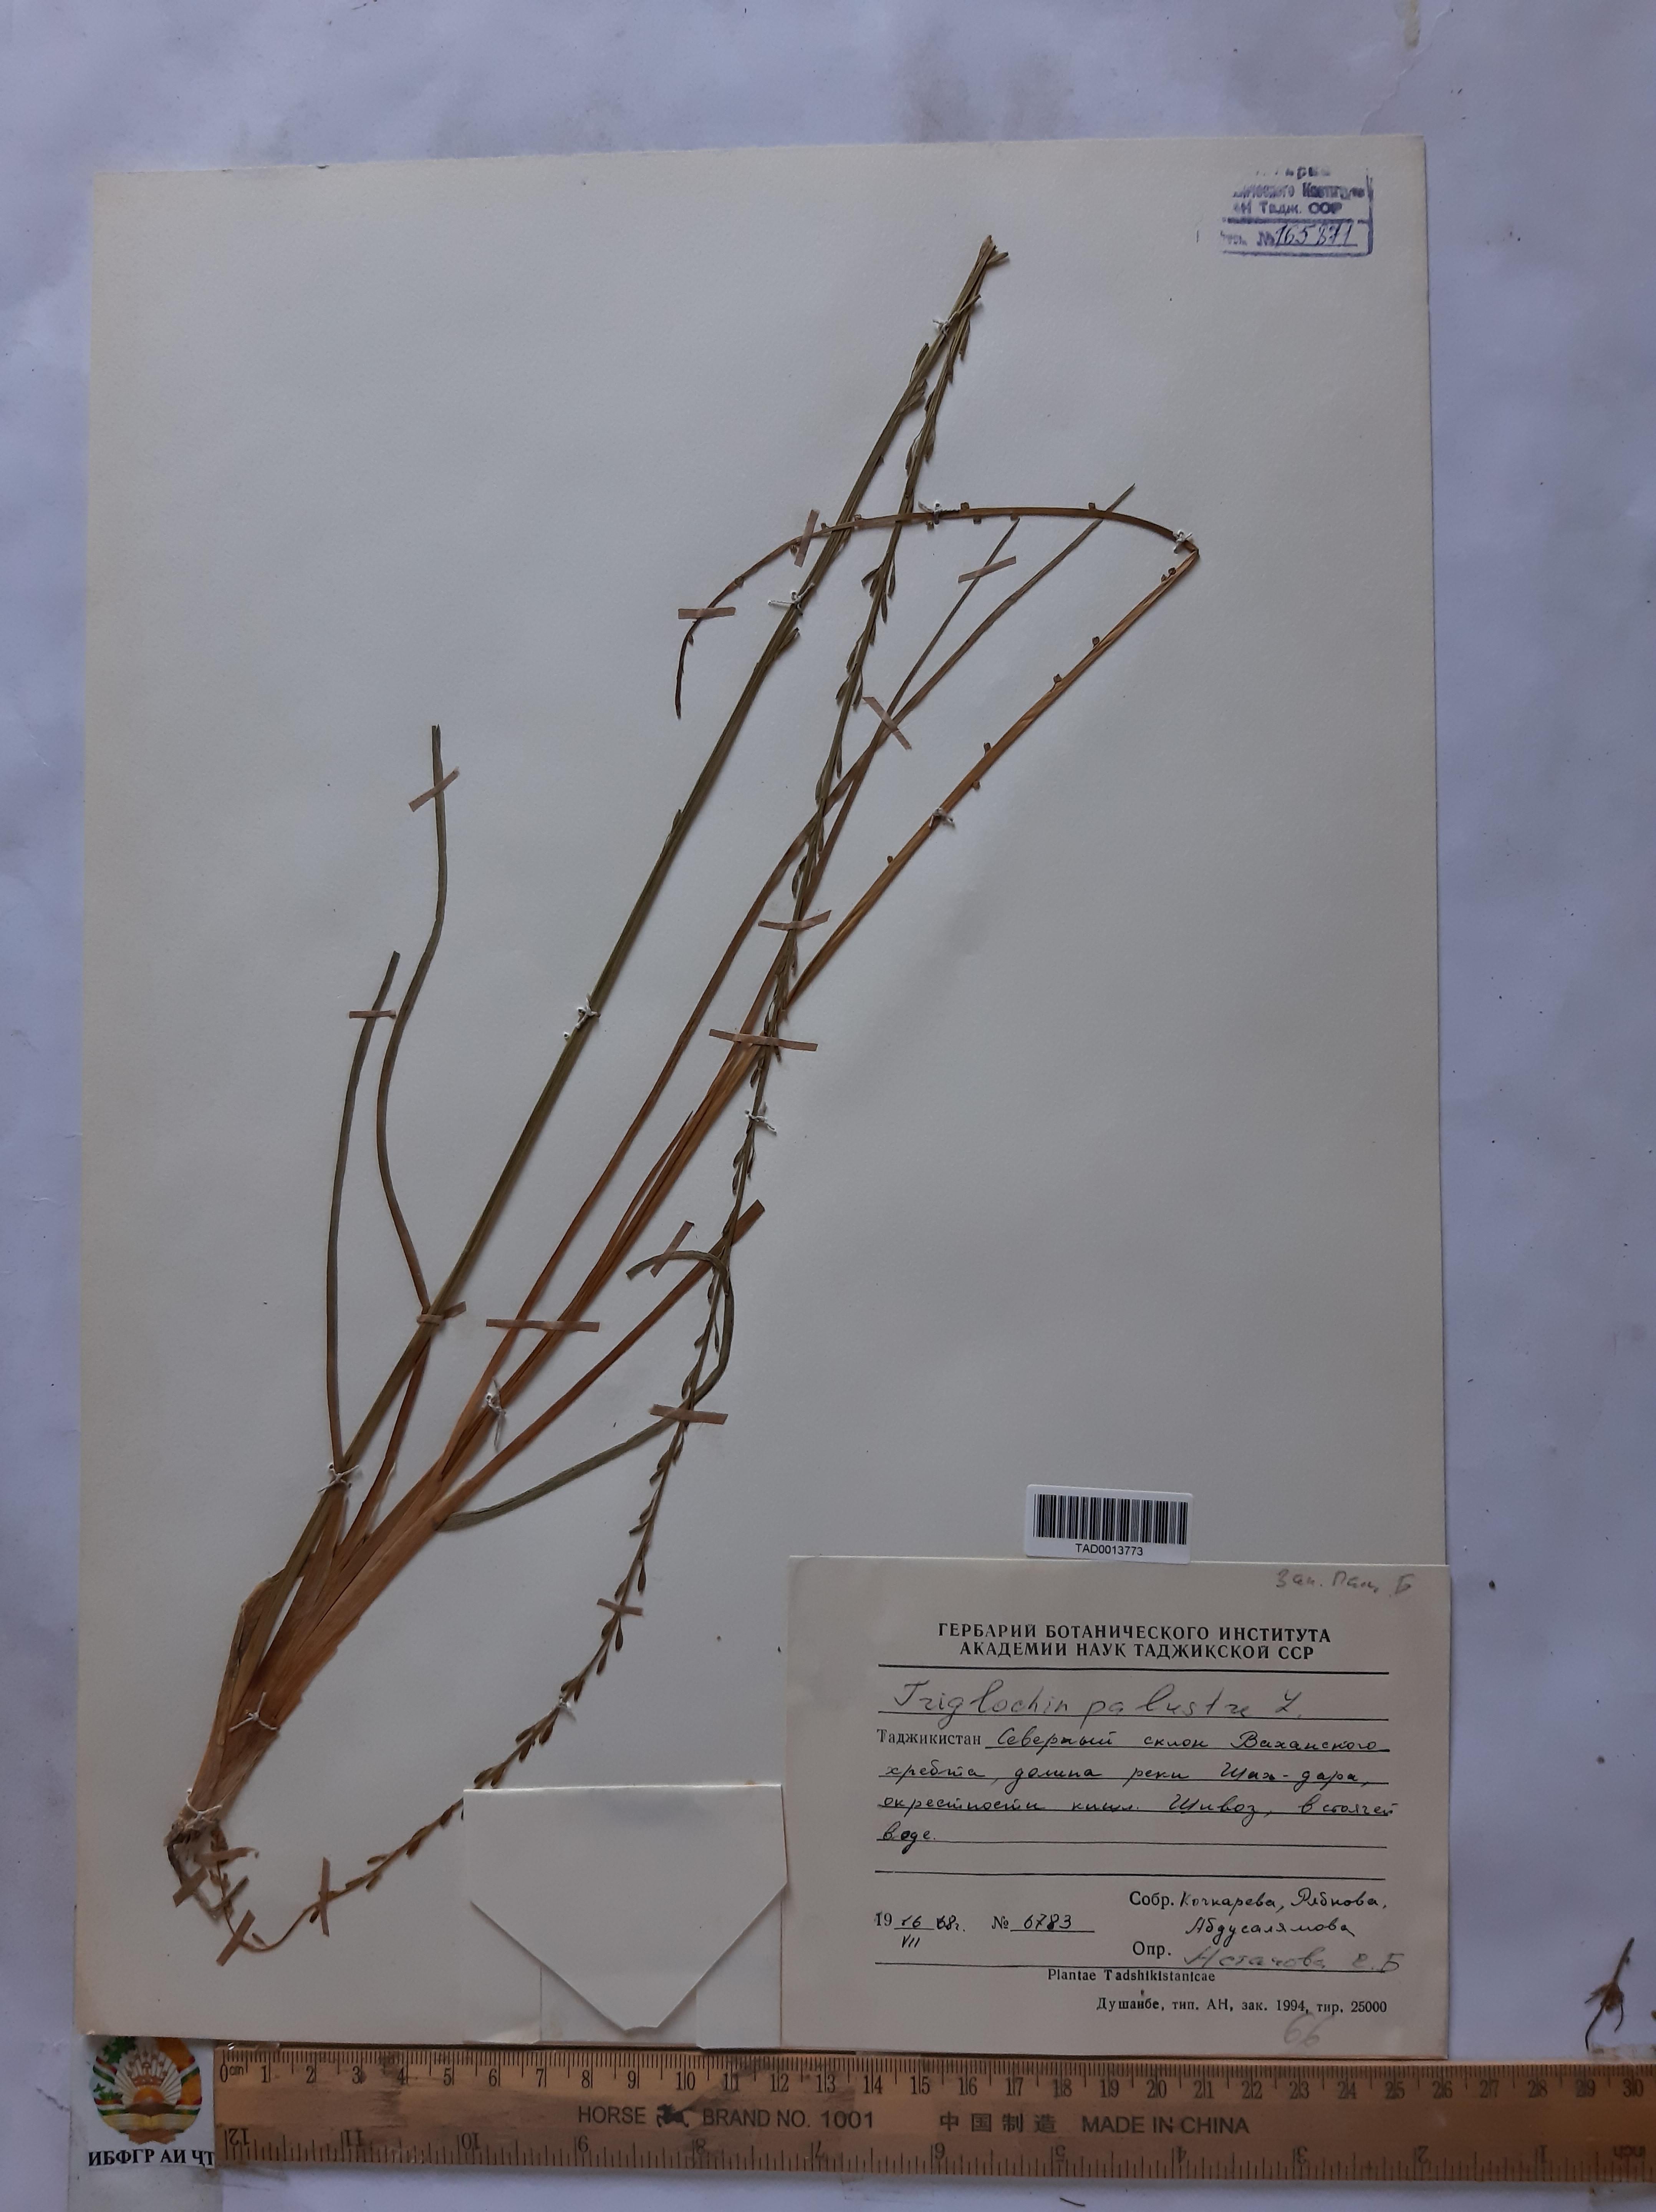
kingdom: Plantae
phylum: Tracheophyta
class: Liliopsida
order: Alismatales
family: Juncaginaceae
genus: Triglochin
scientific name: Triglochin palustris
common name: Marsh arrowgrass
